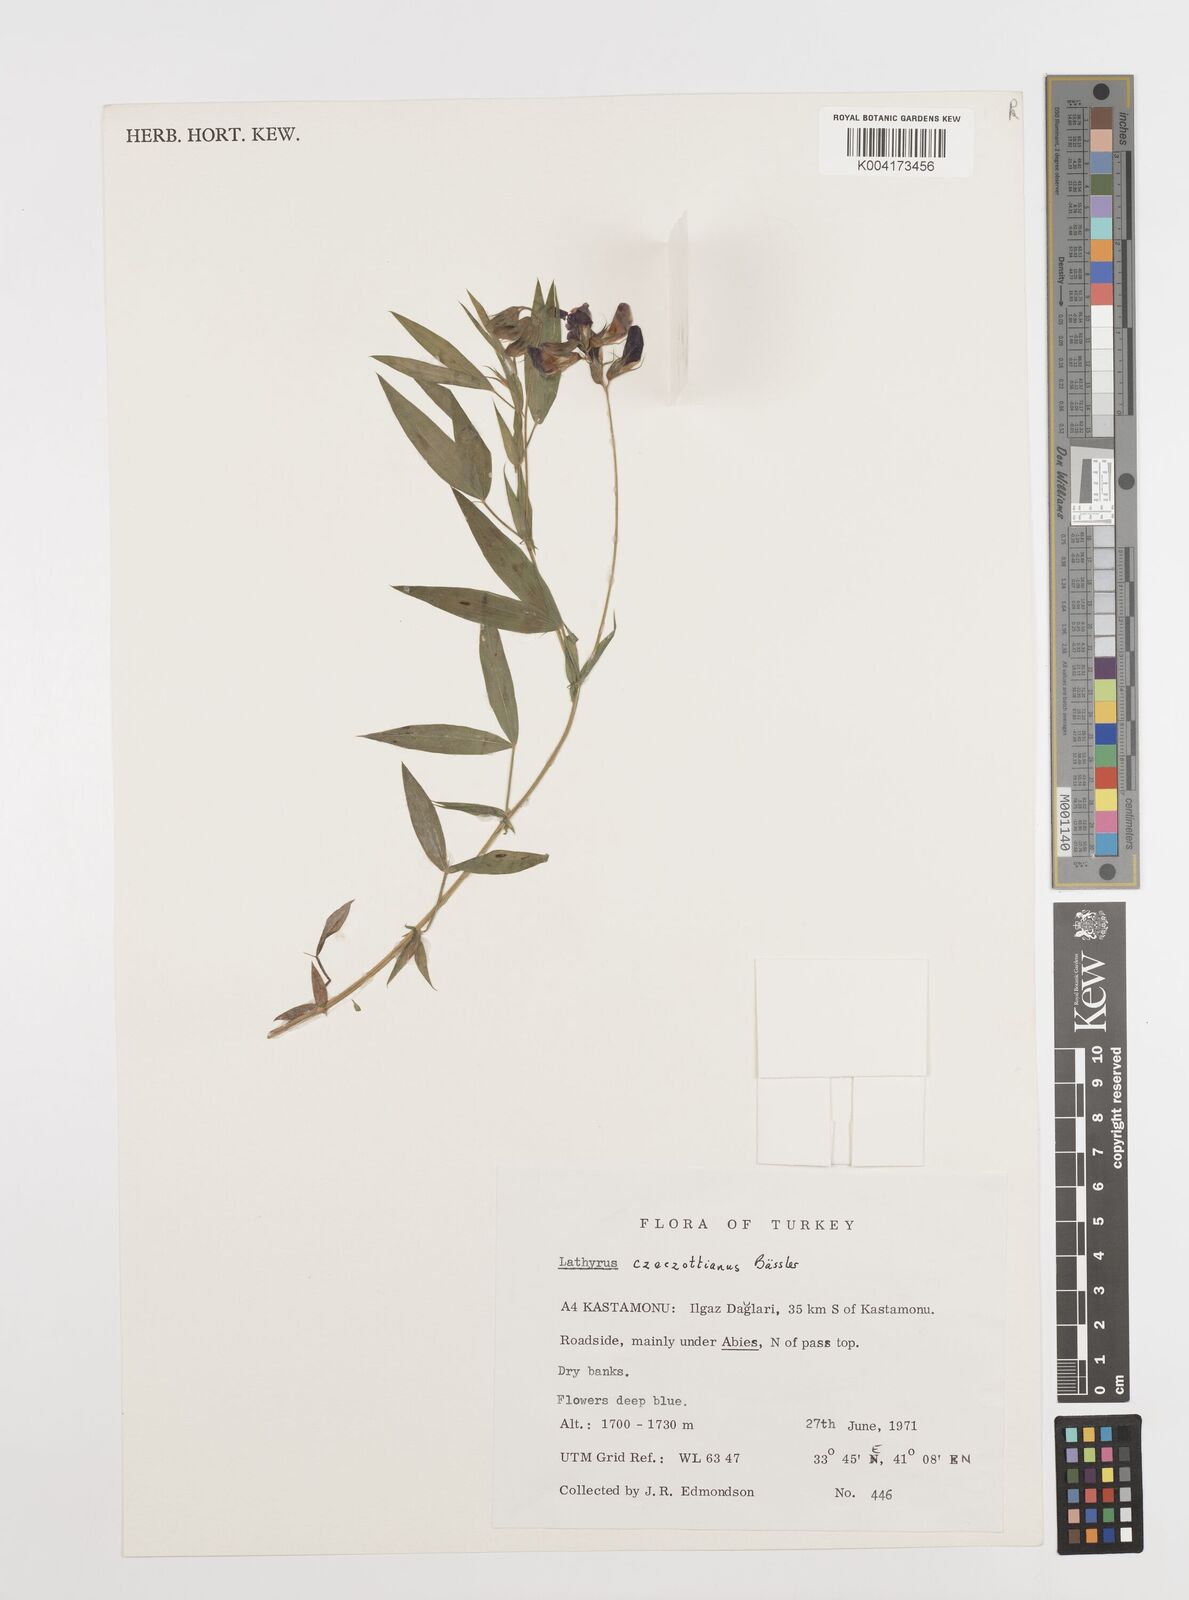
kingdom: Plantae
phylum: Tracheophyta
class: Magnoliopsida
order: Fabales
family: Fabaceae
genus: Lathyrus
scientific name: Lathyrus czeczottianus
